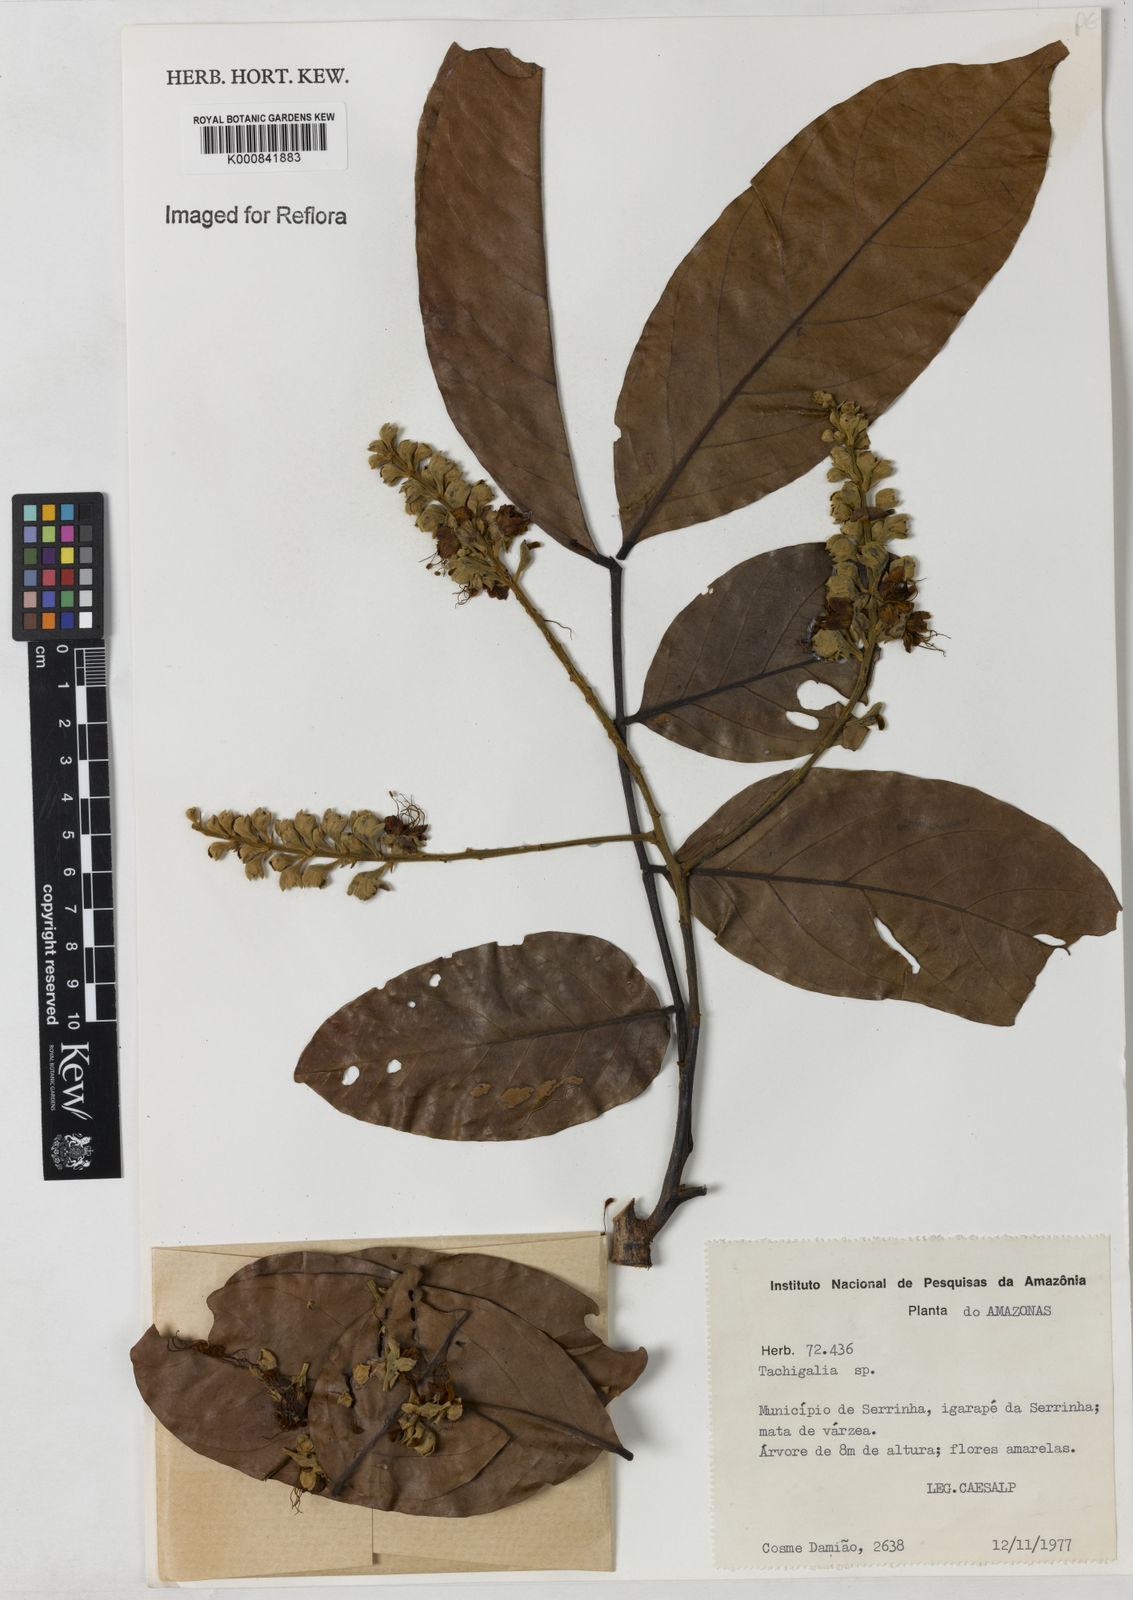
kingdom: Plantae
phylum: Tracheophyta
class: Magnoliopsida
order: Fabales
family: Fabaceae
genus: Tachigali
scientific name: Tachigali
